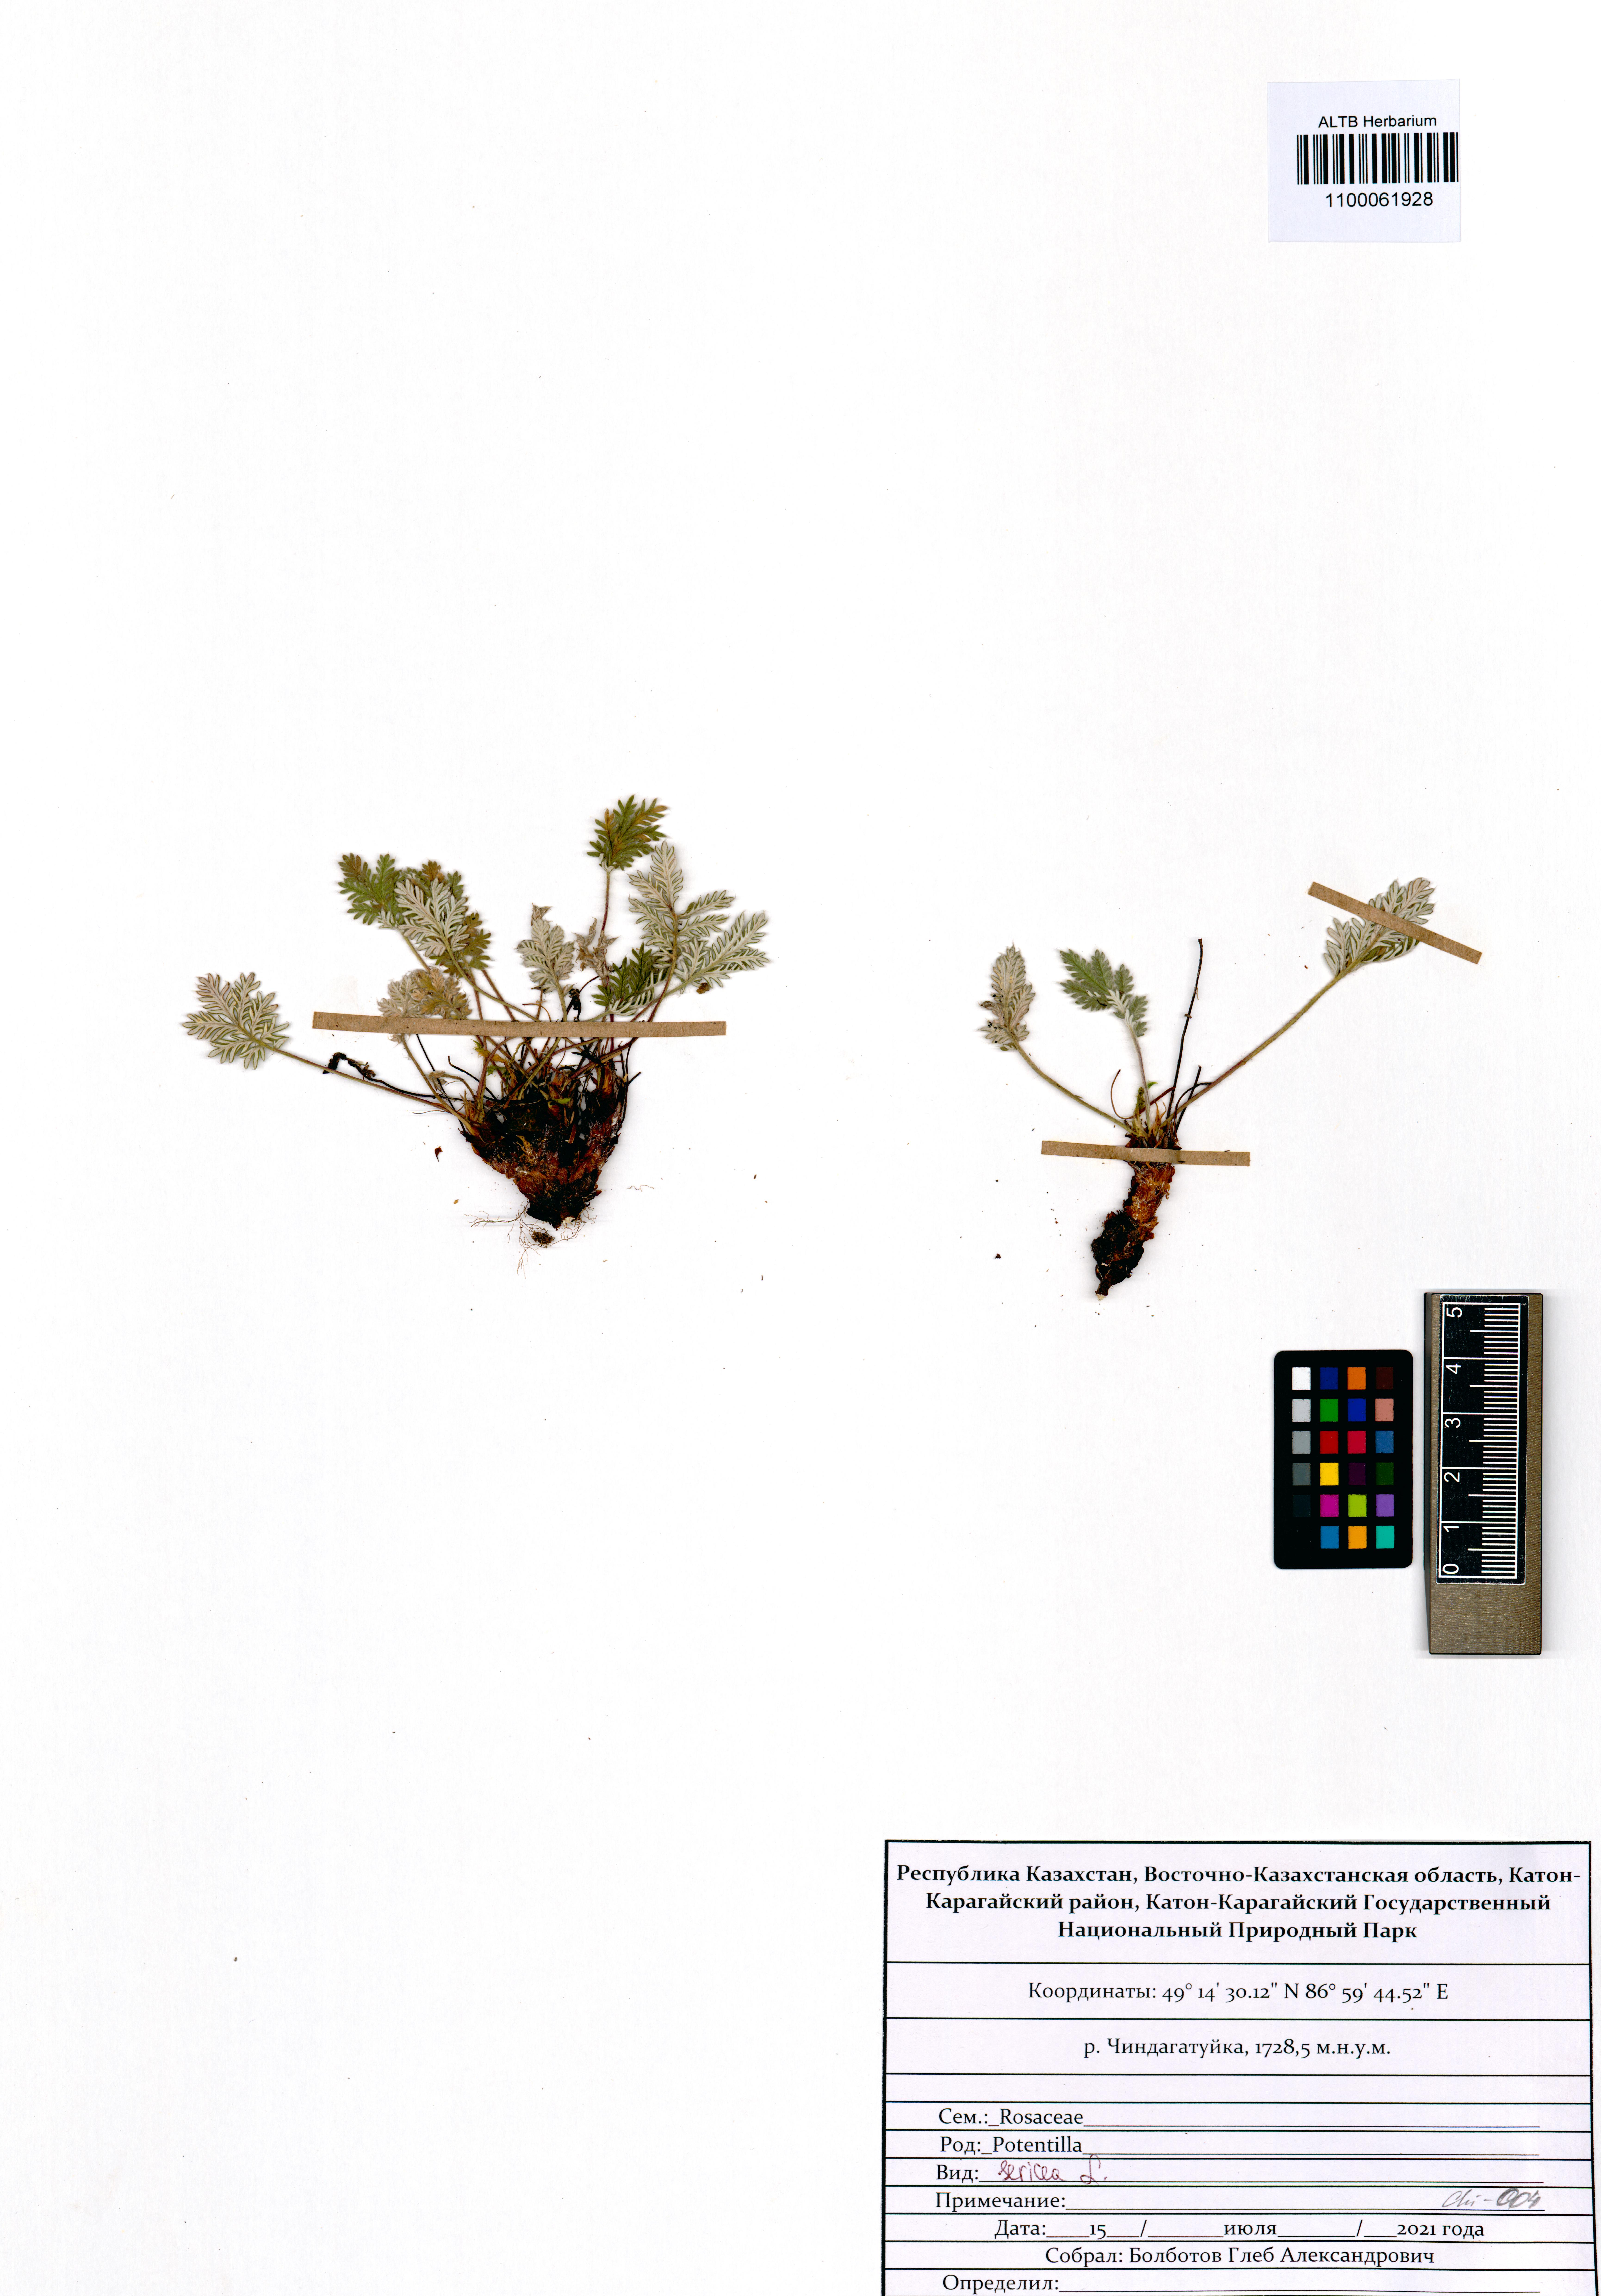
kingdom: Plantae
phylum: Tracheophyta
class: Magnoliopsida
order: Rosales
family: Rosaceae
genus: Potentilla
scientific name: Potentilla sericea
